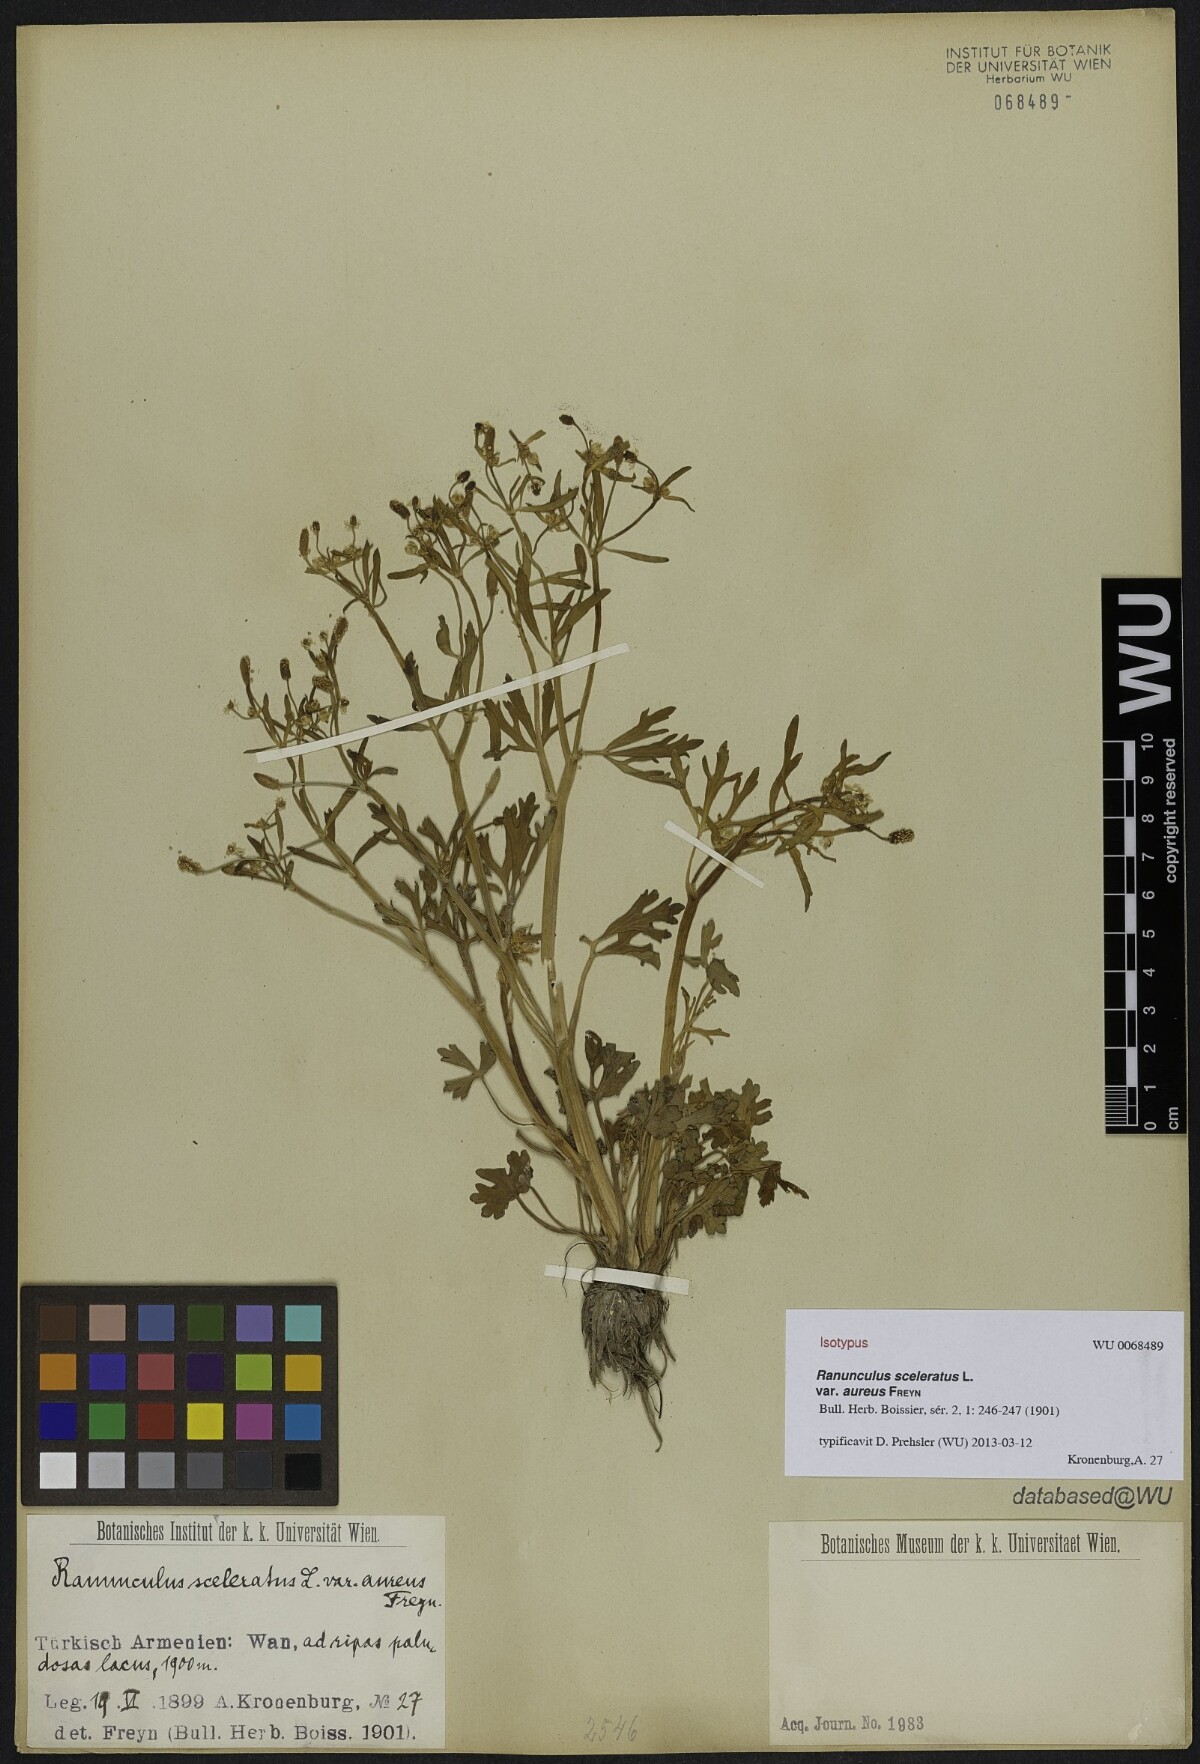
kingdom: Plantae
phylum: Tracheophyta
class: Magnoliopsida
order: Ranunculales
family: Ranunculaceae
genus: Ranunculus
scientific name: Ranunculus sceleratus
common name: Celery-leaved buttercup
